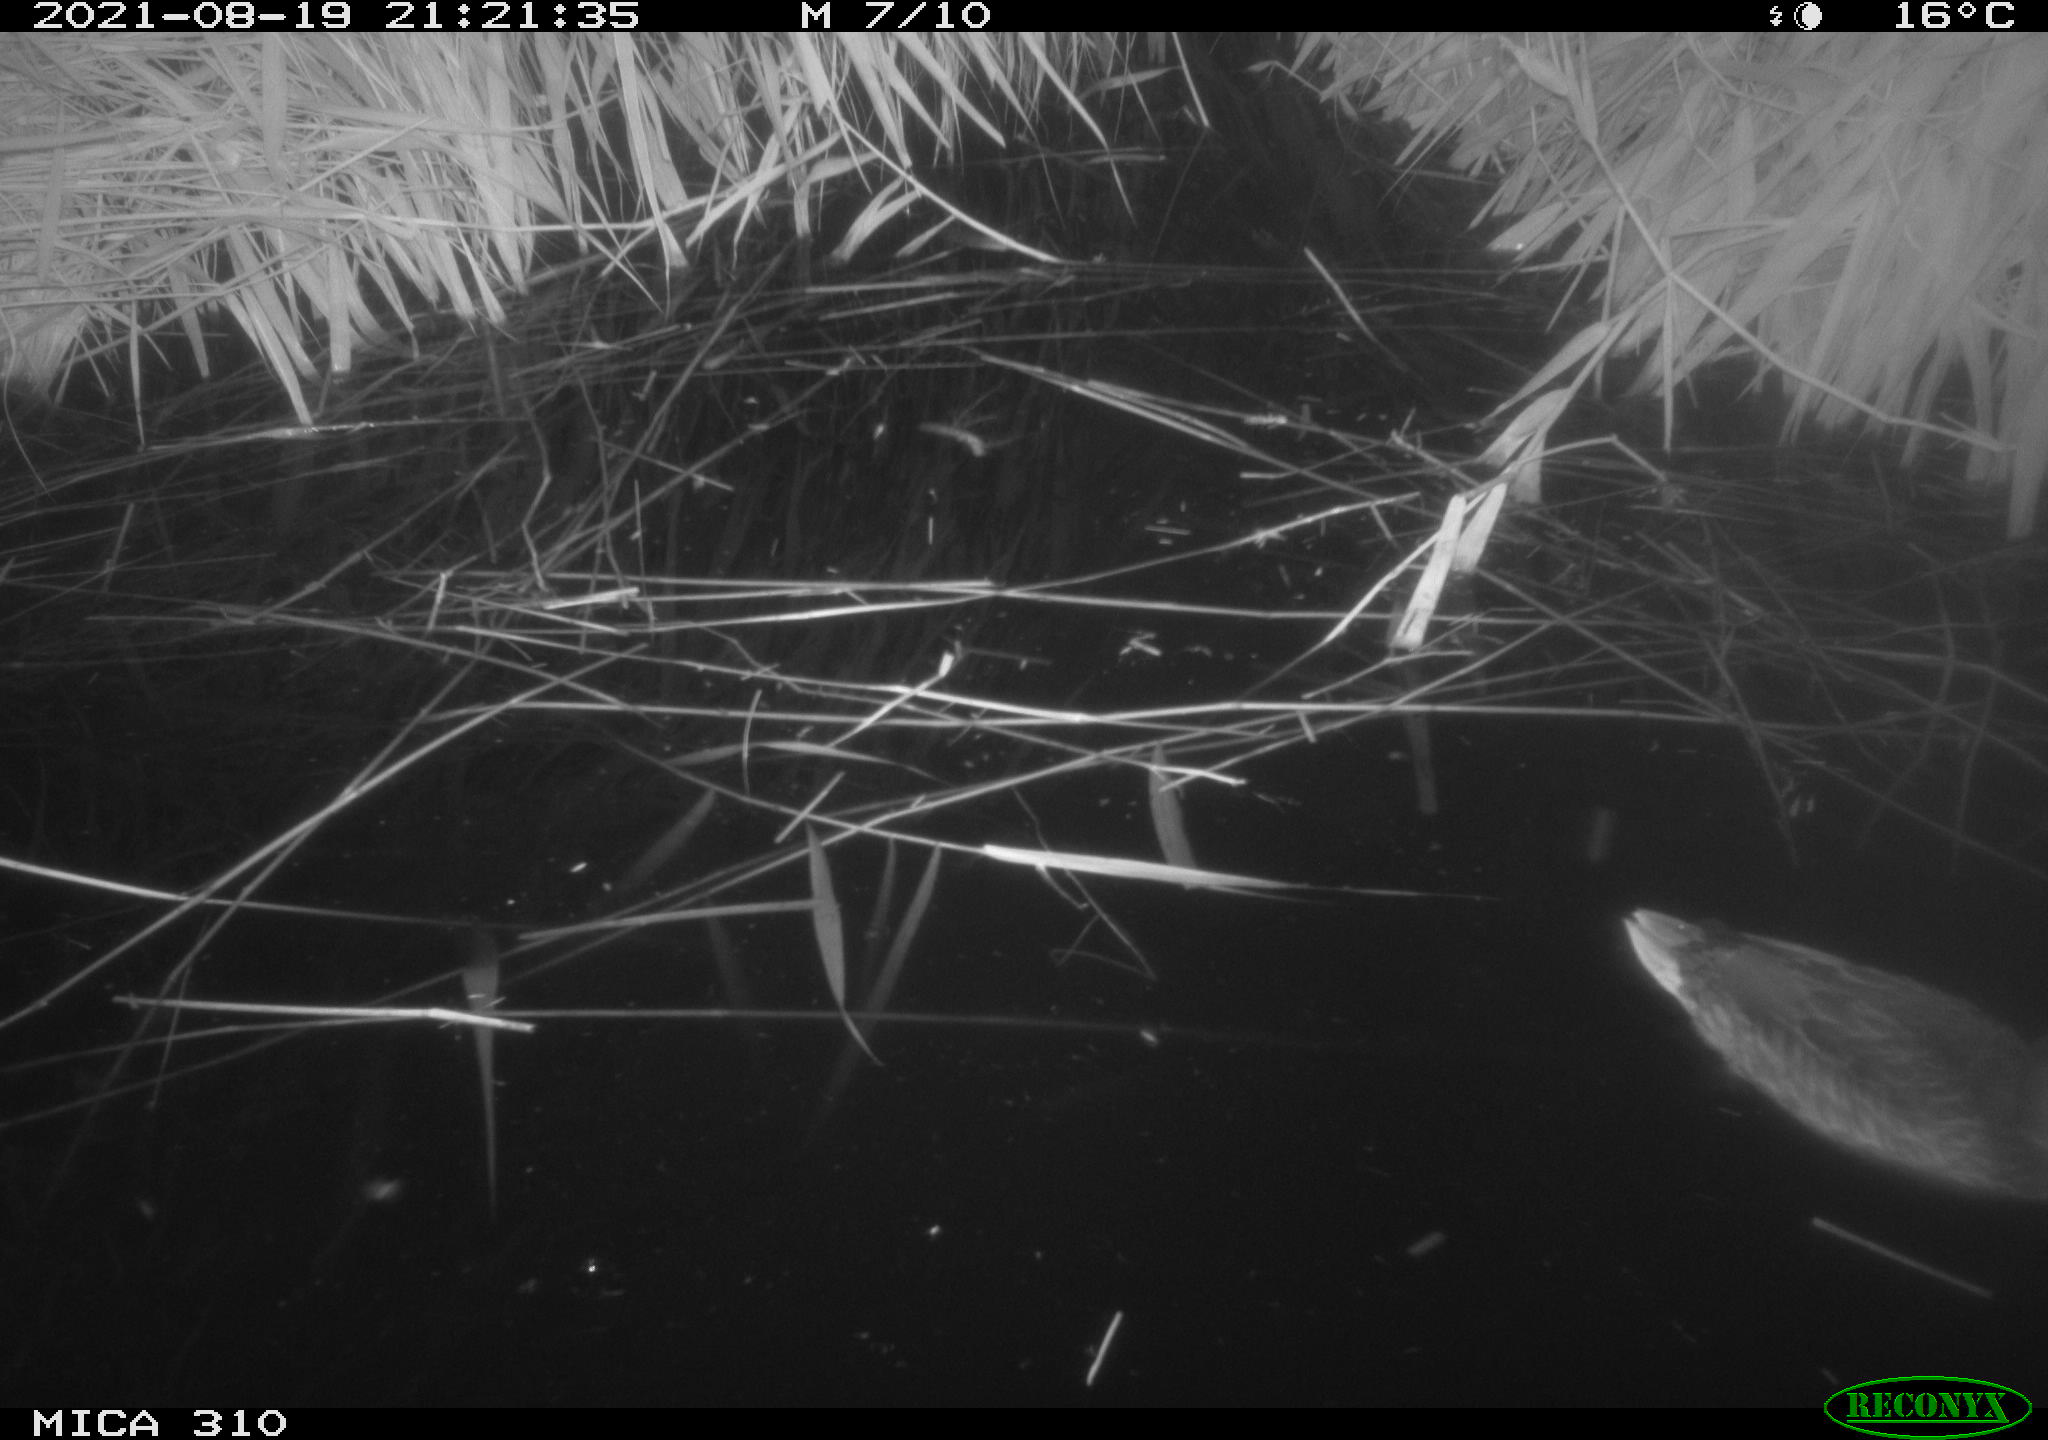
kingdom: Animalia
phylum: Chordata
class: Aves
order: Anseriformes
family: Anatidae
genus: Anas
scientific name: Anas platyrhynchos
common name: Mallard
